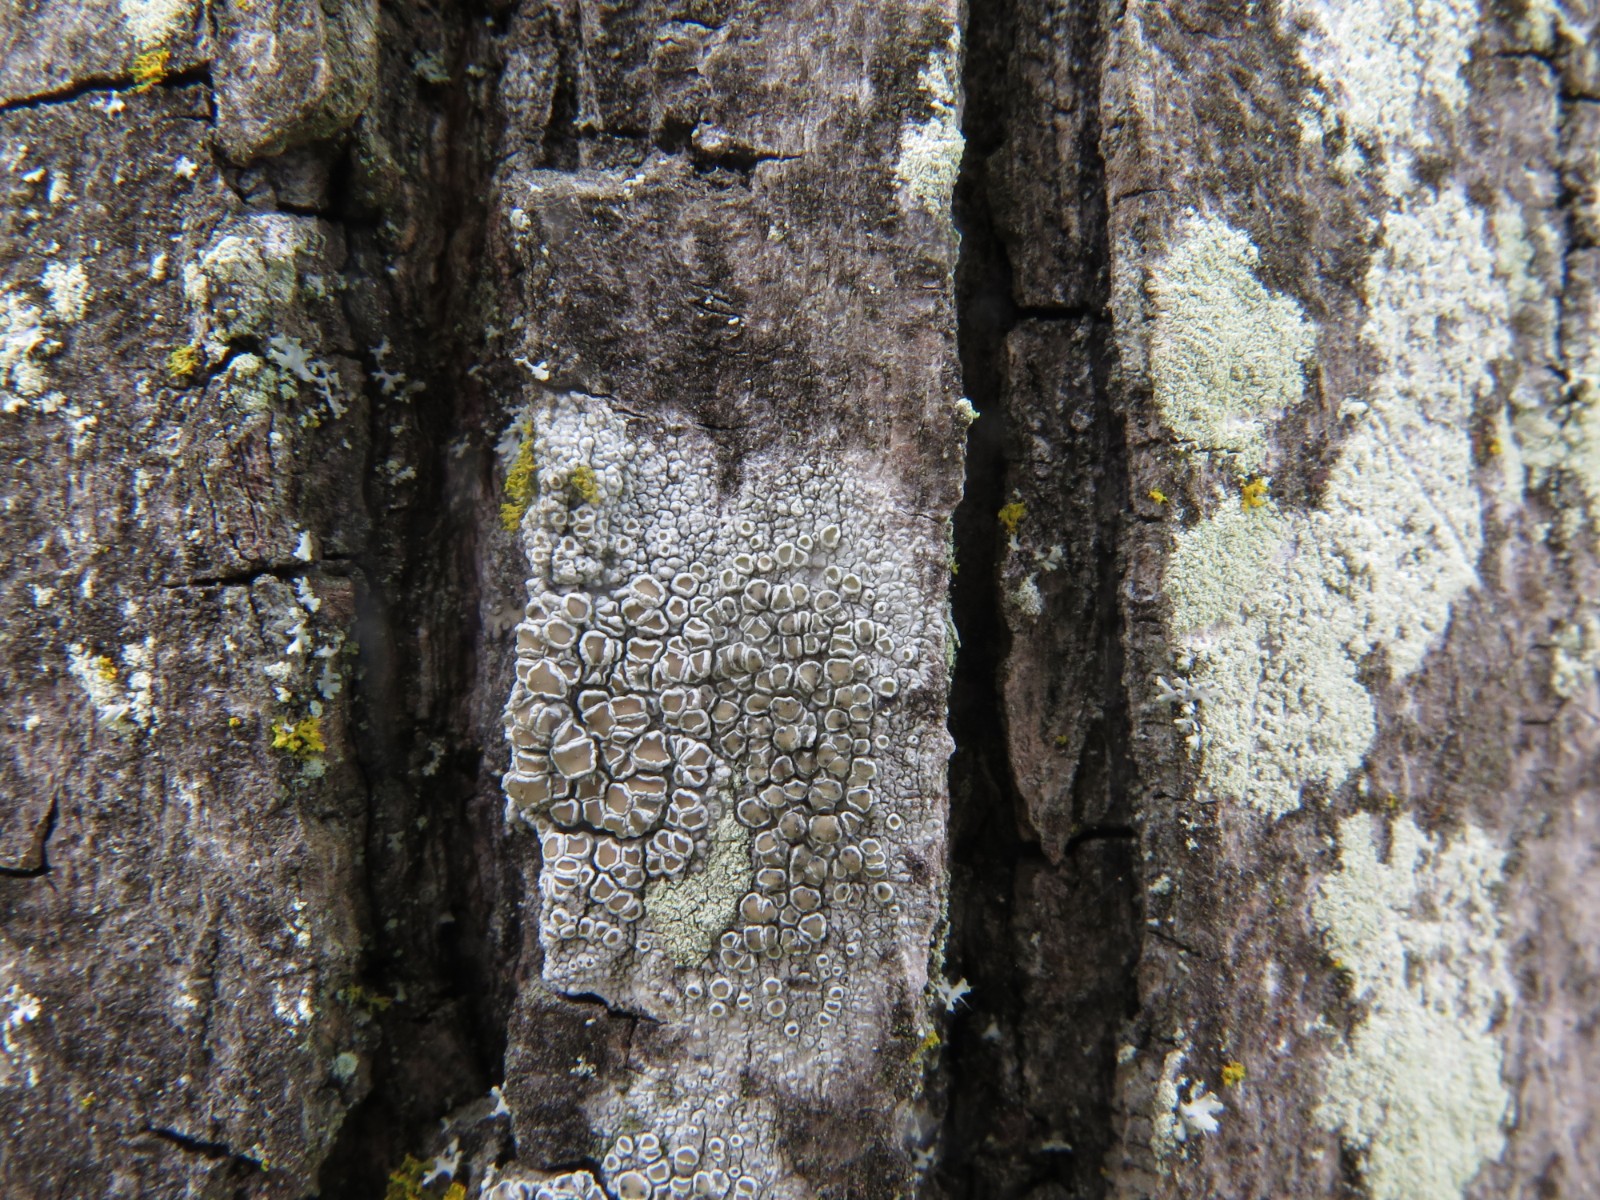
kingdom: Fungi
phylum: Ascomycota
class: Lecanoromycetes
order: Lecanorales
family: Lecanoraceae
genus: Lecanora
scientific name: Lecanora chlarotera
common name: brun kantskivelav
